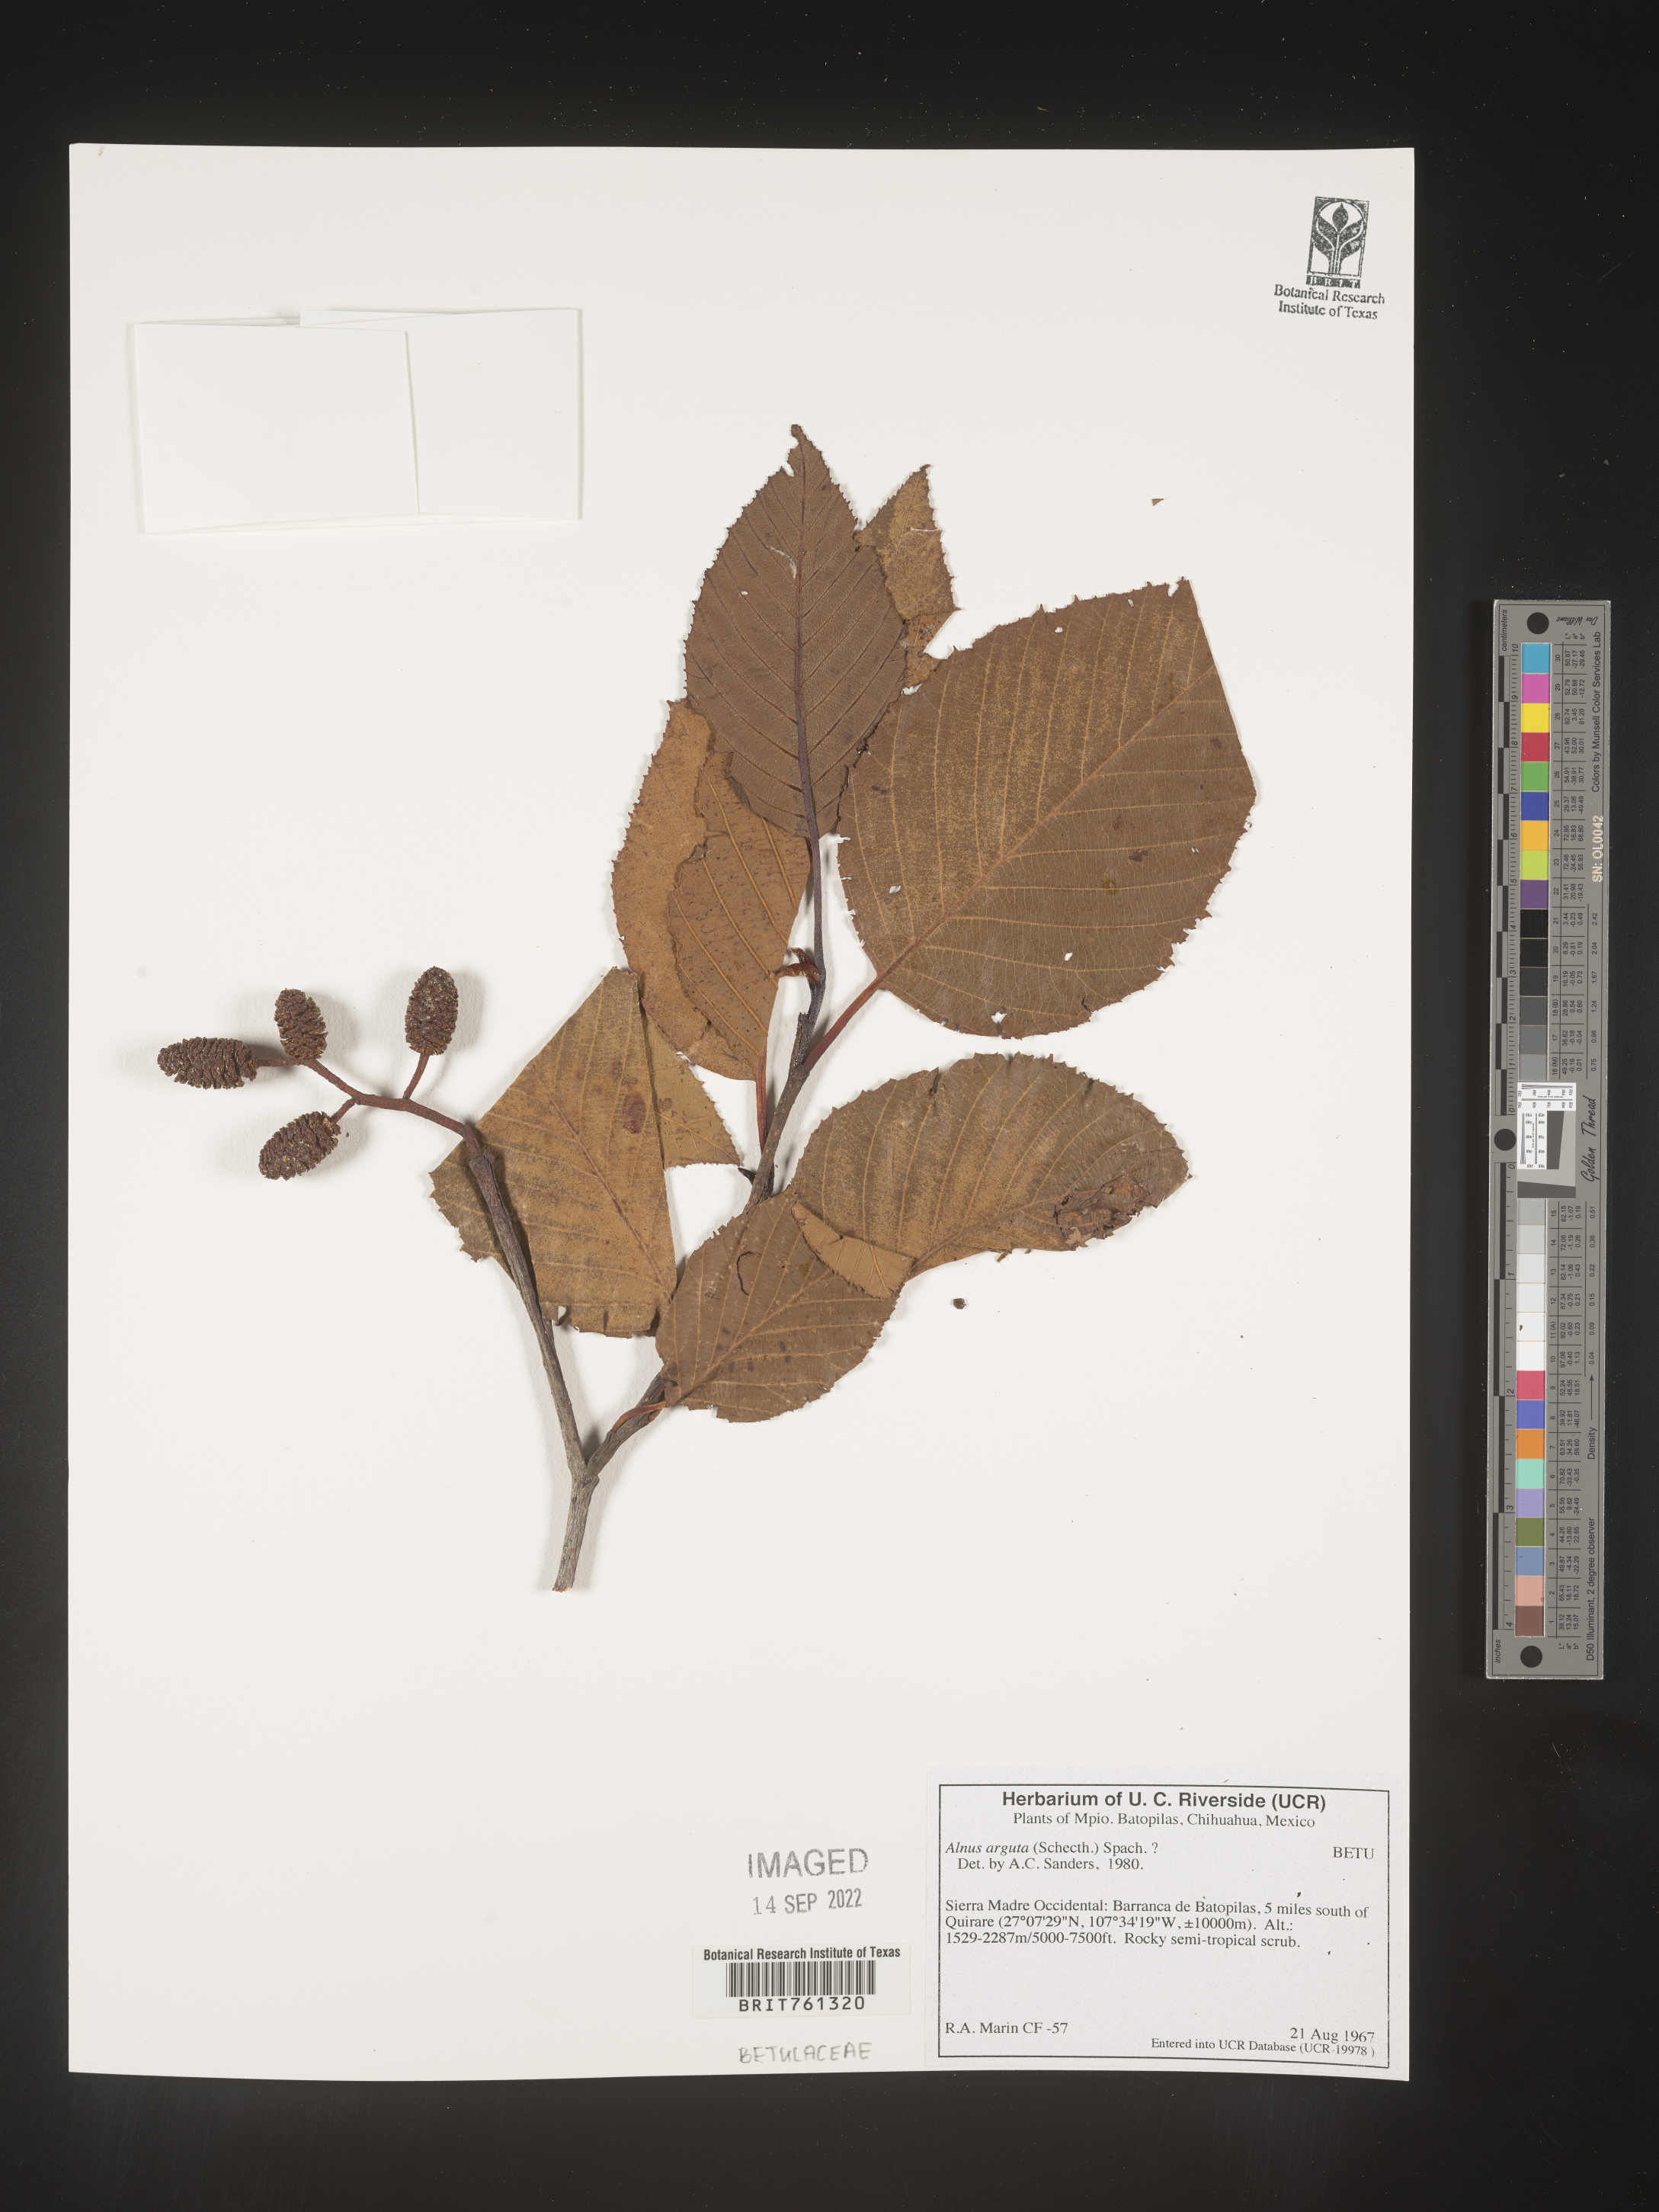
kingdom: Plantae
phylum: Tracheophyta
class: Magnoliopsida
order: Fagales
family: Betulaceae
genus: Alnus
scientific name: Alnus acuminata
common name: Alder
